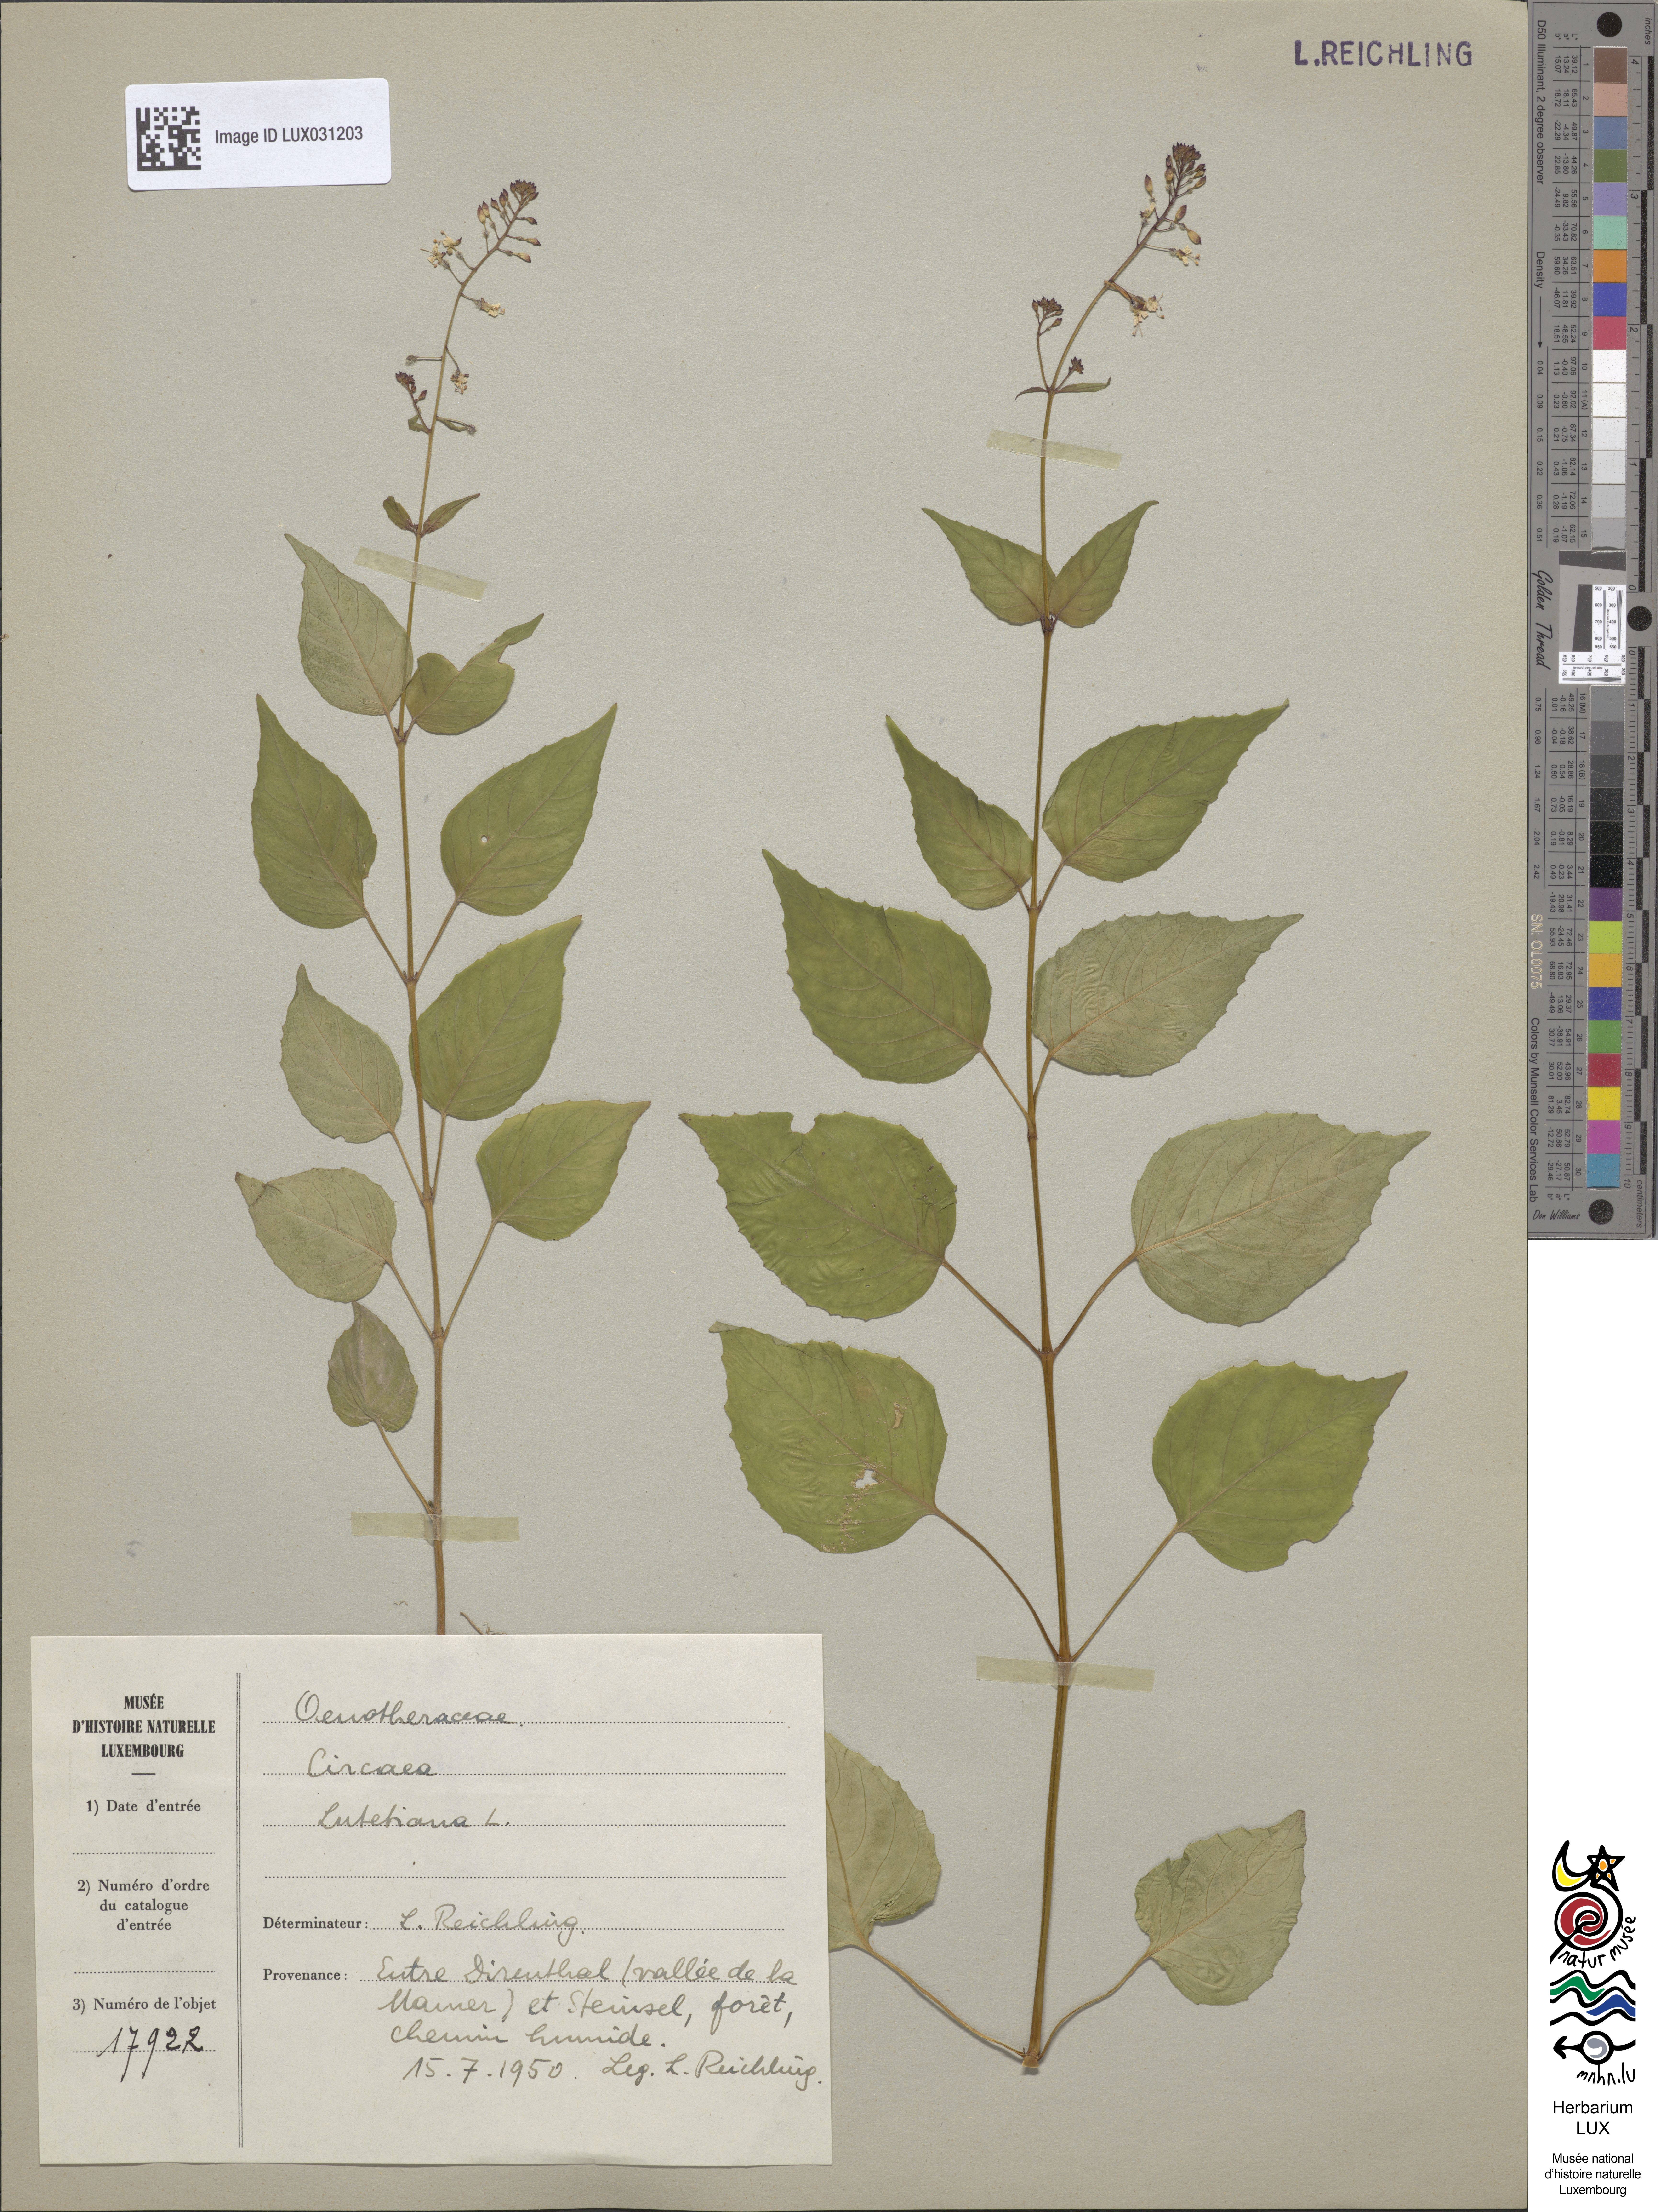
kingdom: Plantae
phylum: Tracheophyta
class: Magnoliopsida
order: Myrtales
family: Onagraceae
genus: Circaea
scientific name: Circaea lutetiana
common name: Enchanter's-nightshade
